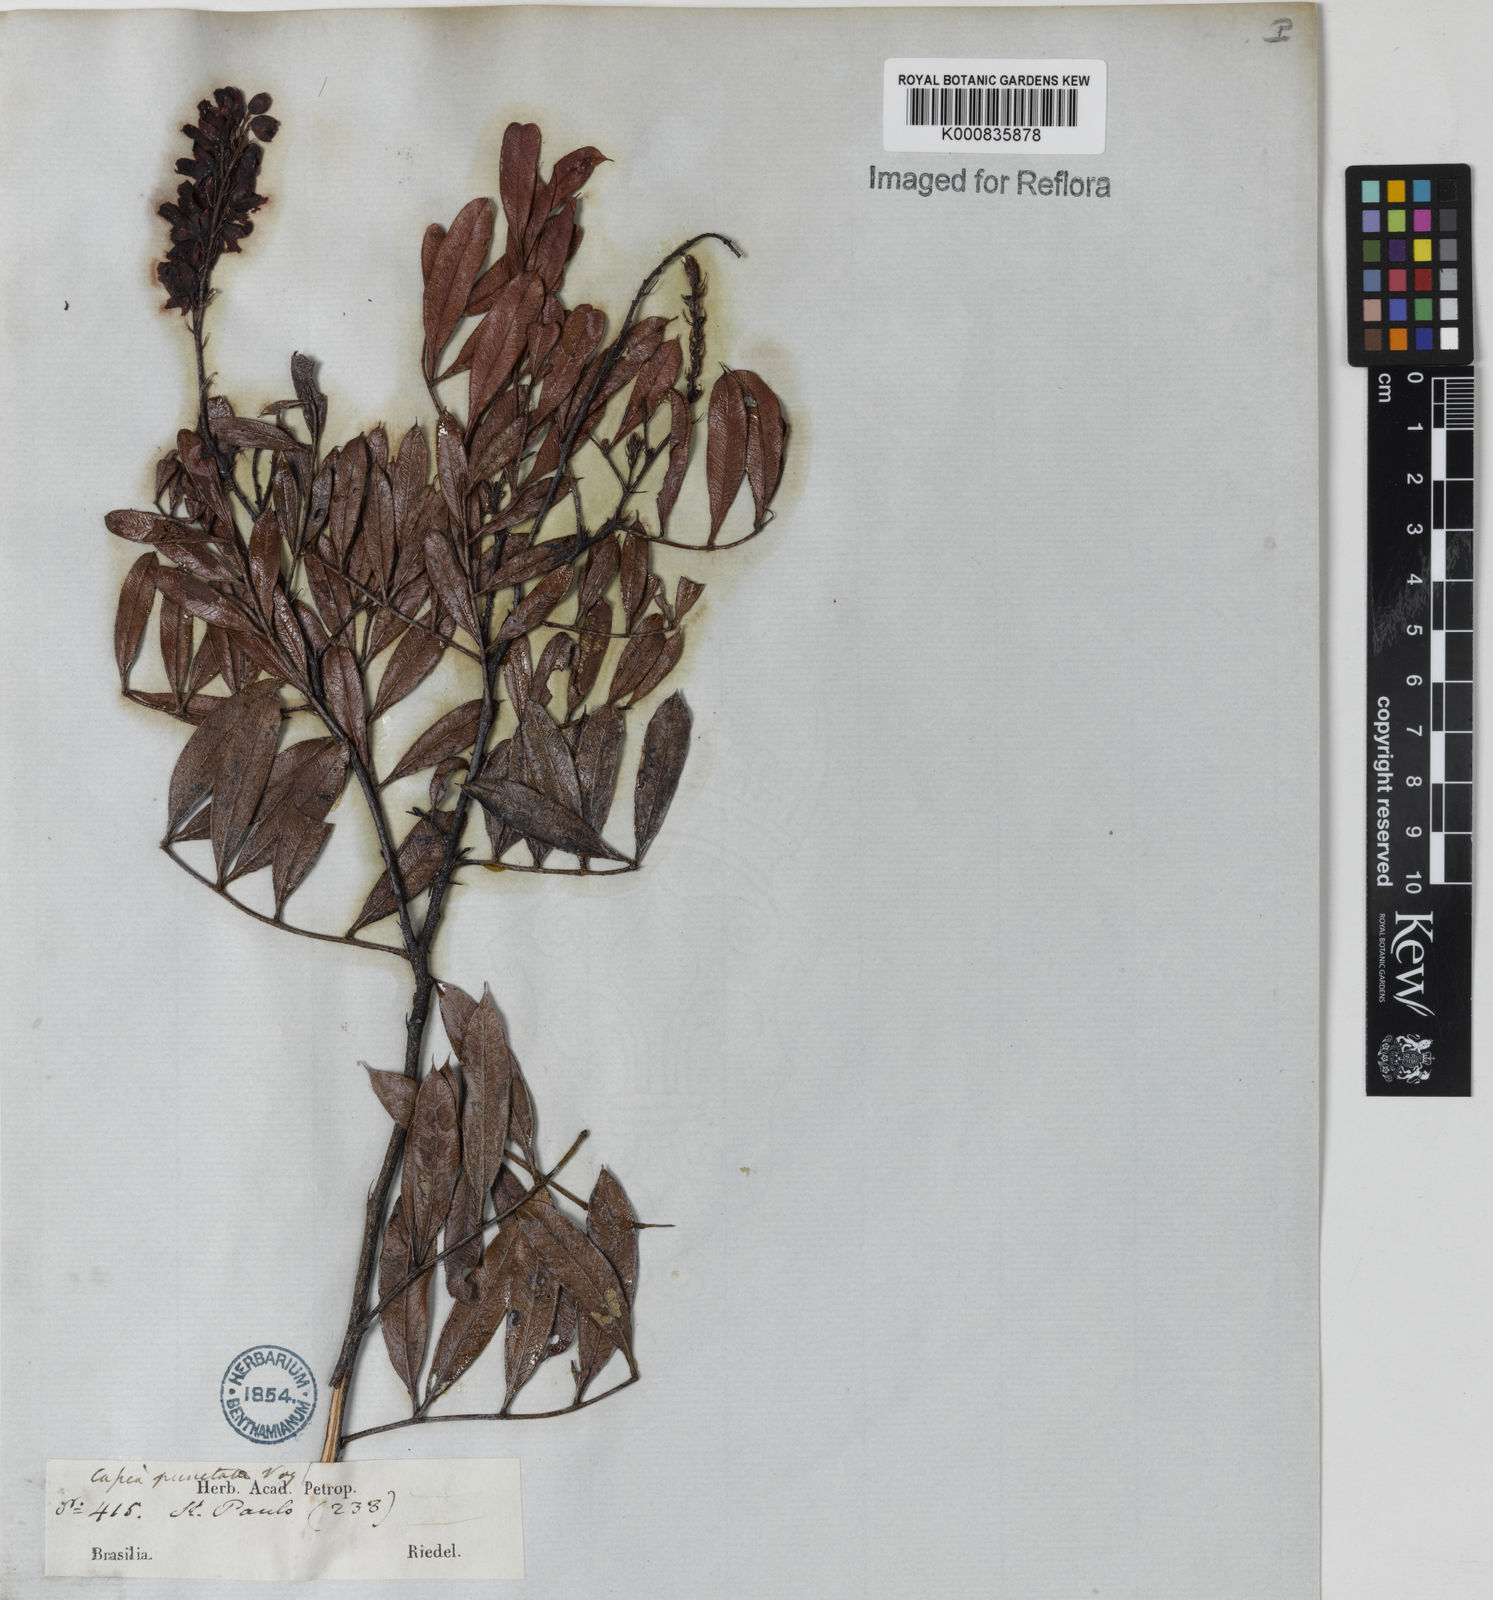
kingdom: Plantae
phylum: Tracheophyta
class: Magnoliopsida
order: Fabales
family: Fabaceae
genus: Chamaecrista
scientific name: Chamaecrista punctata
